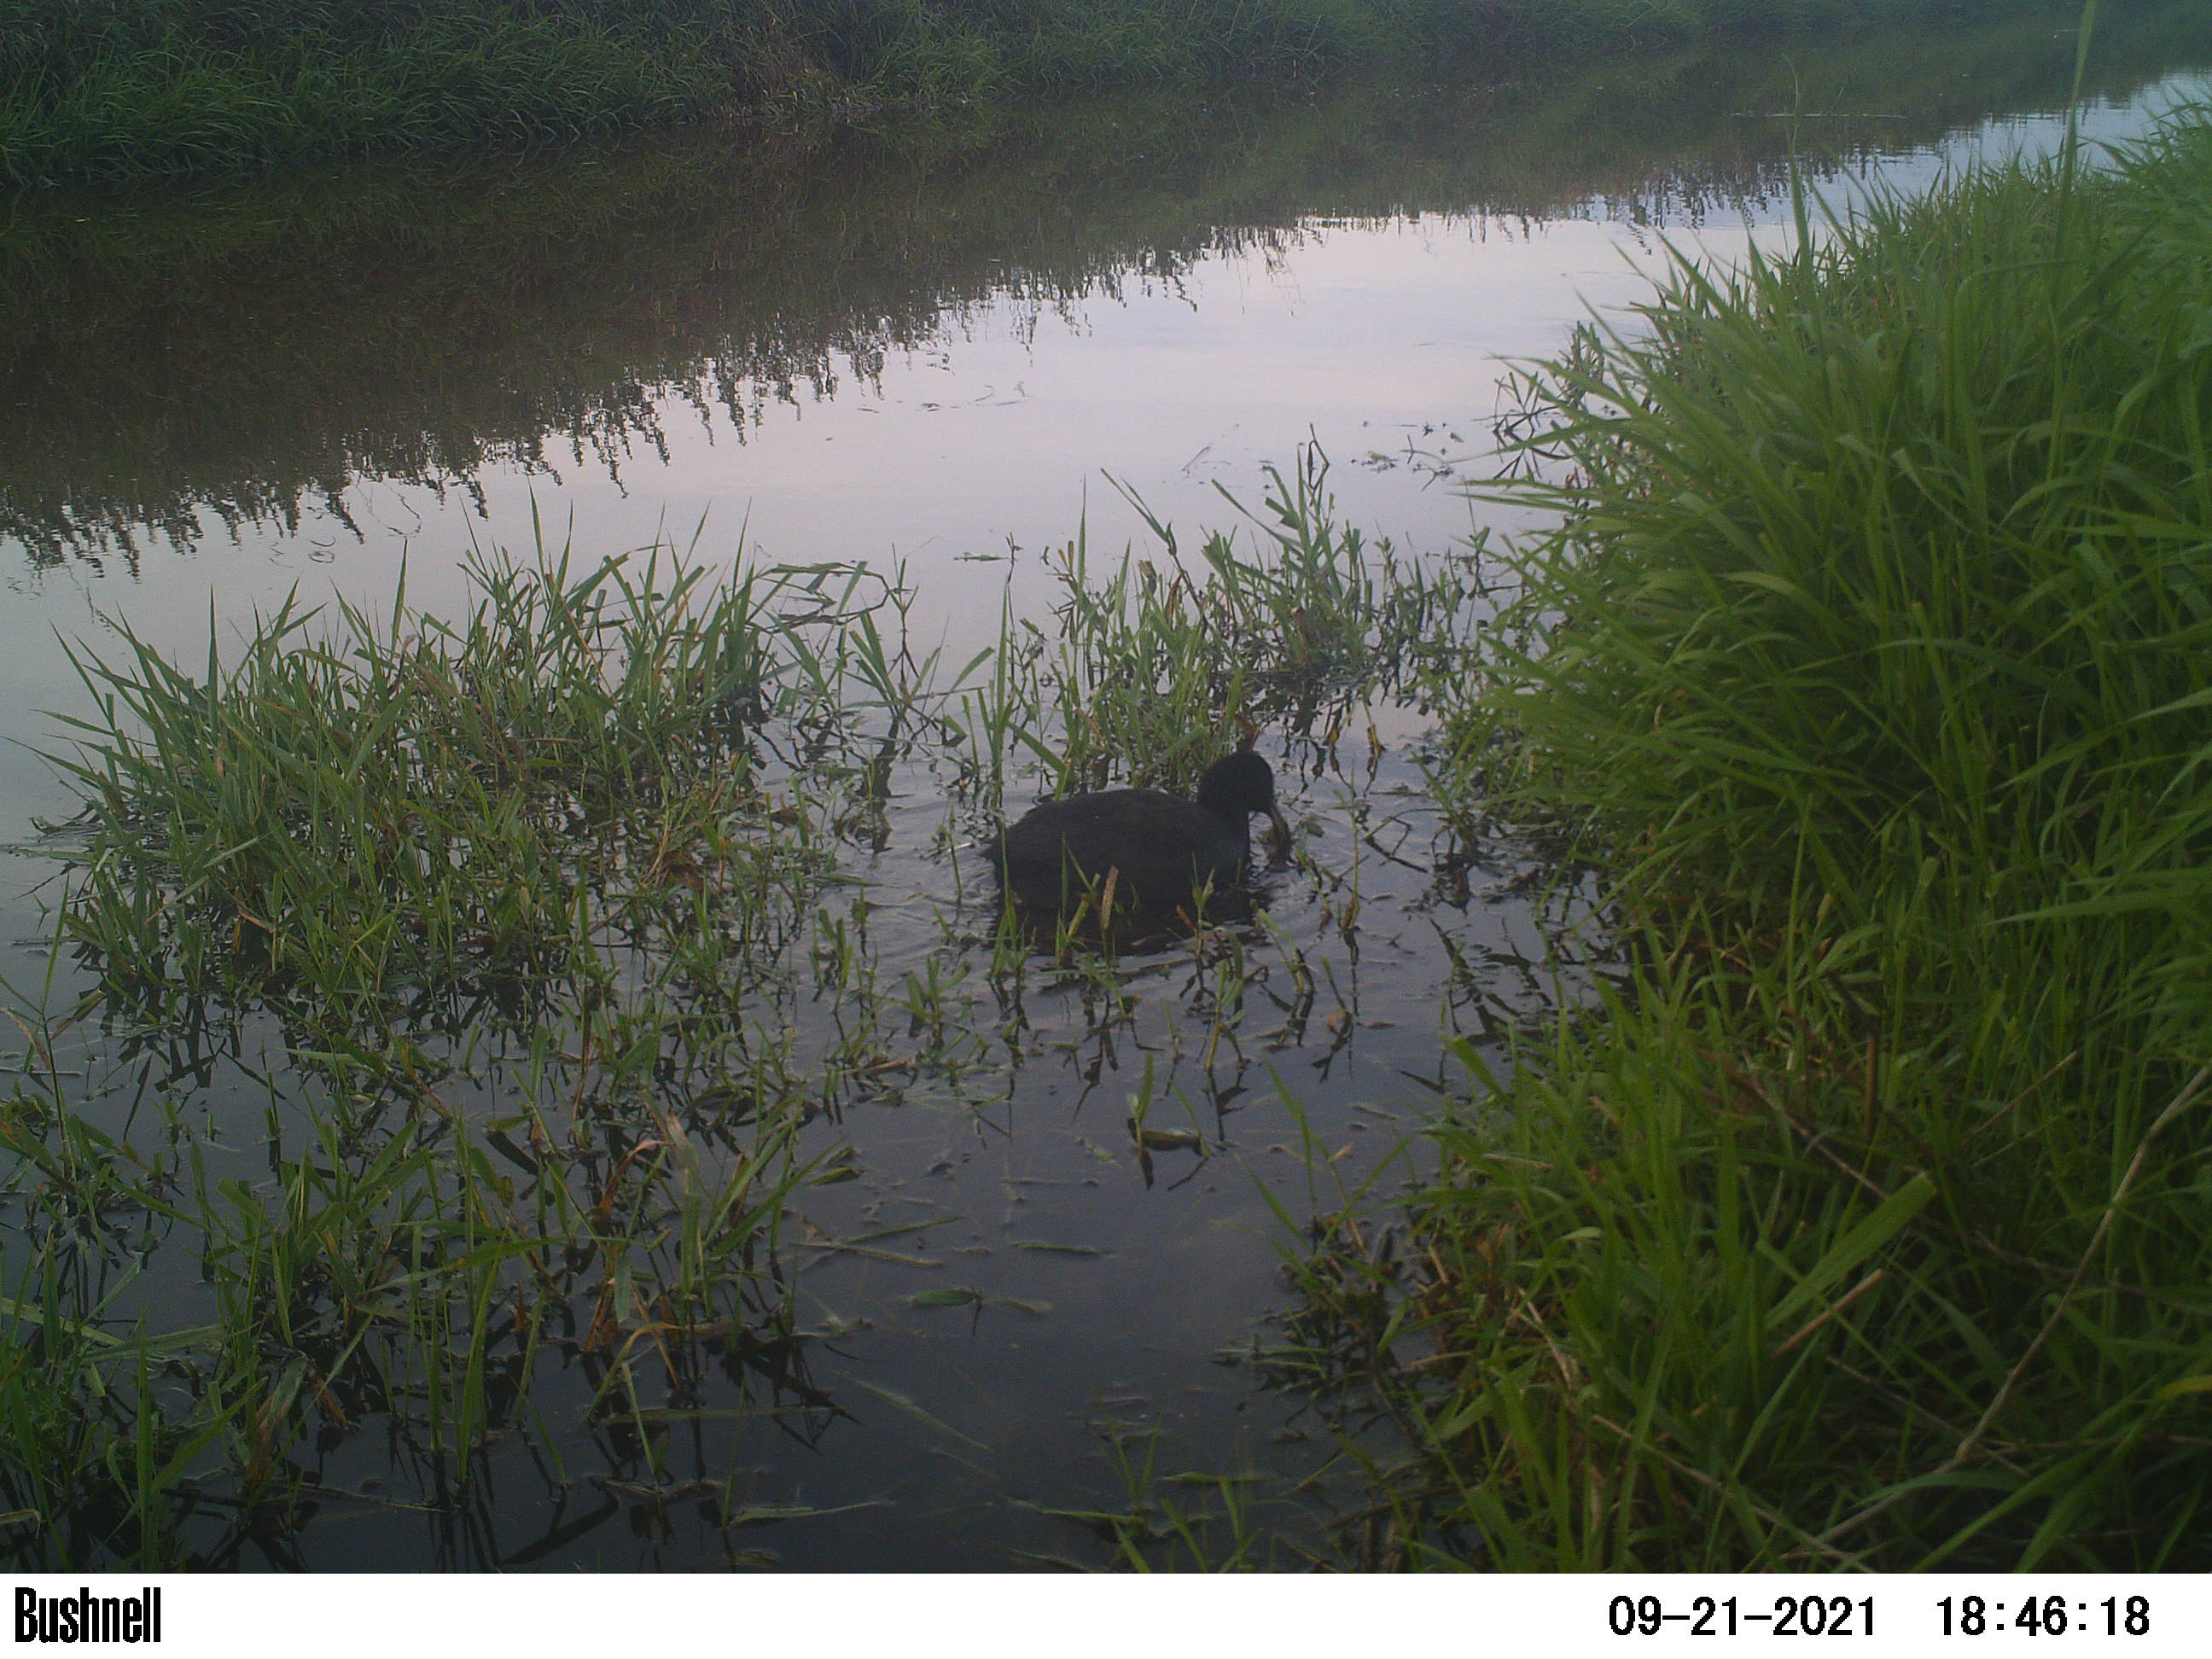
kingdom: Animalia
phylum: Chordata
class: Aves
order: Gruiformes
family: Rallidae
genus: Fulica
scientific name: Fulica atra
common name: Eurasian coot
